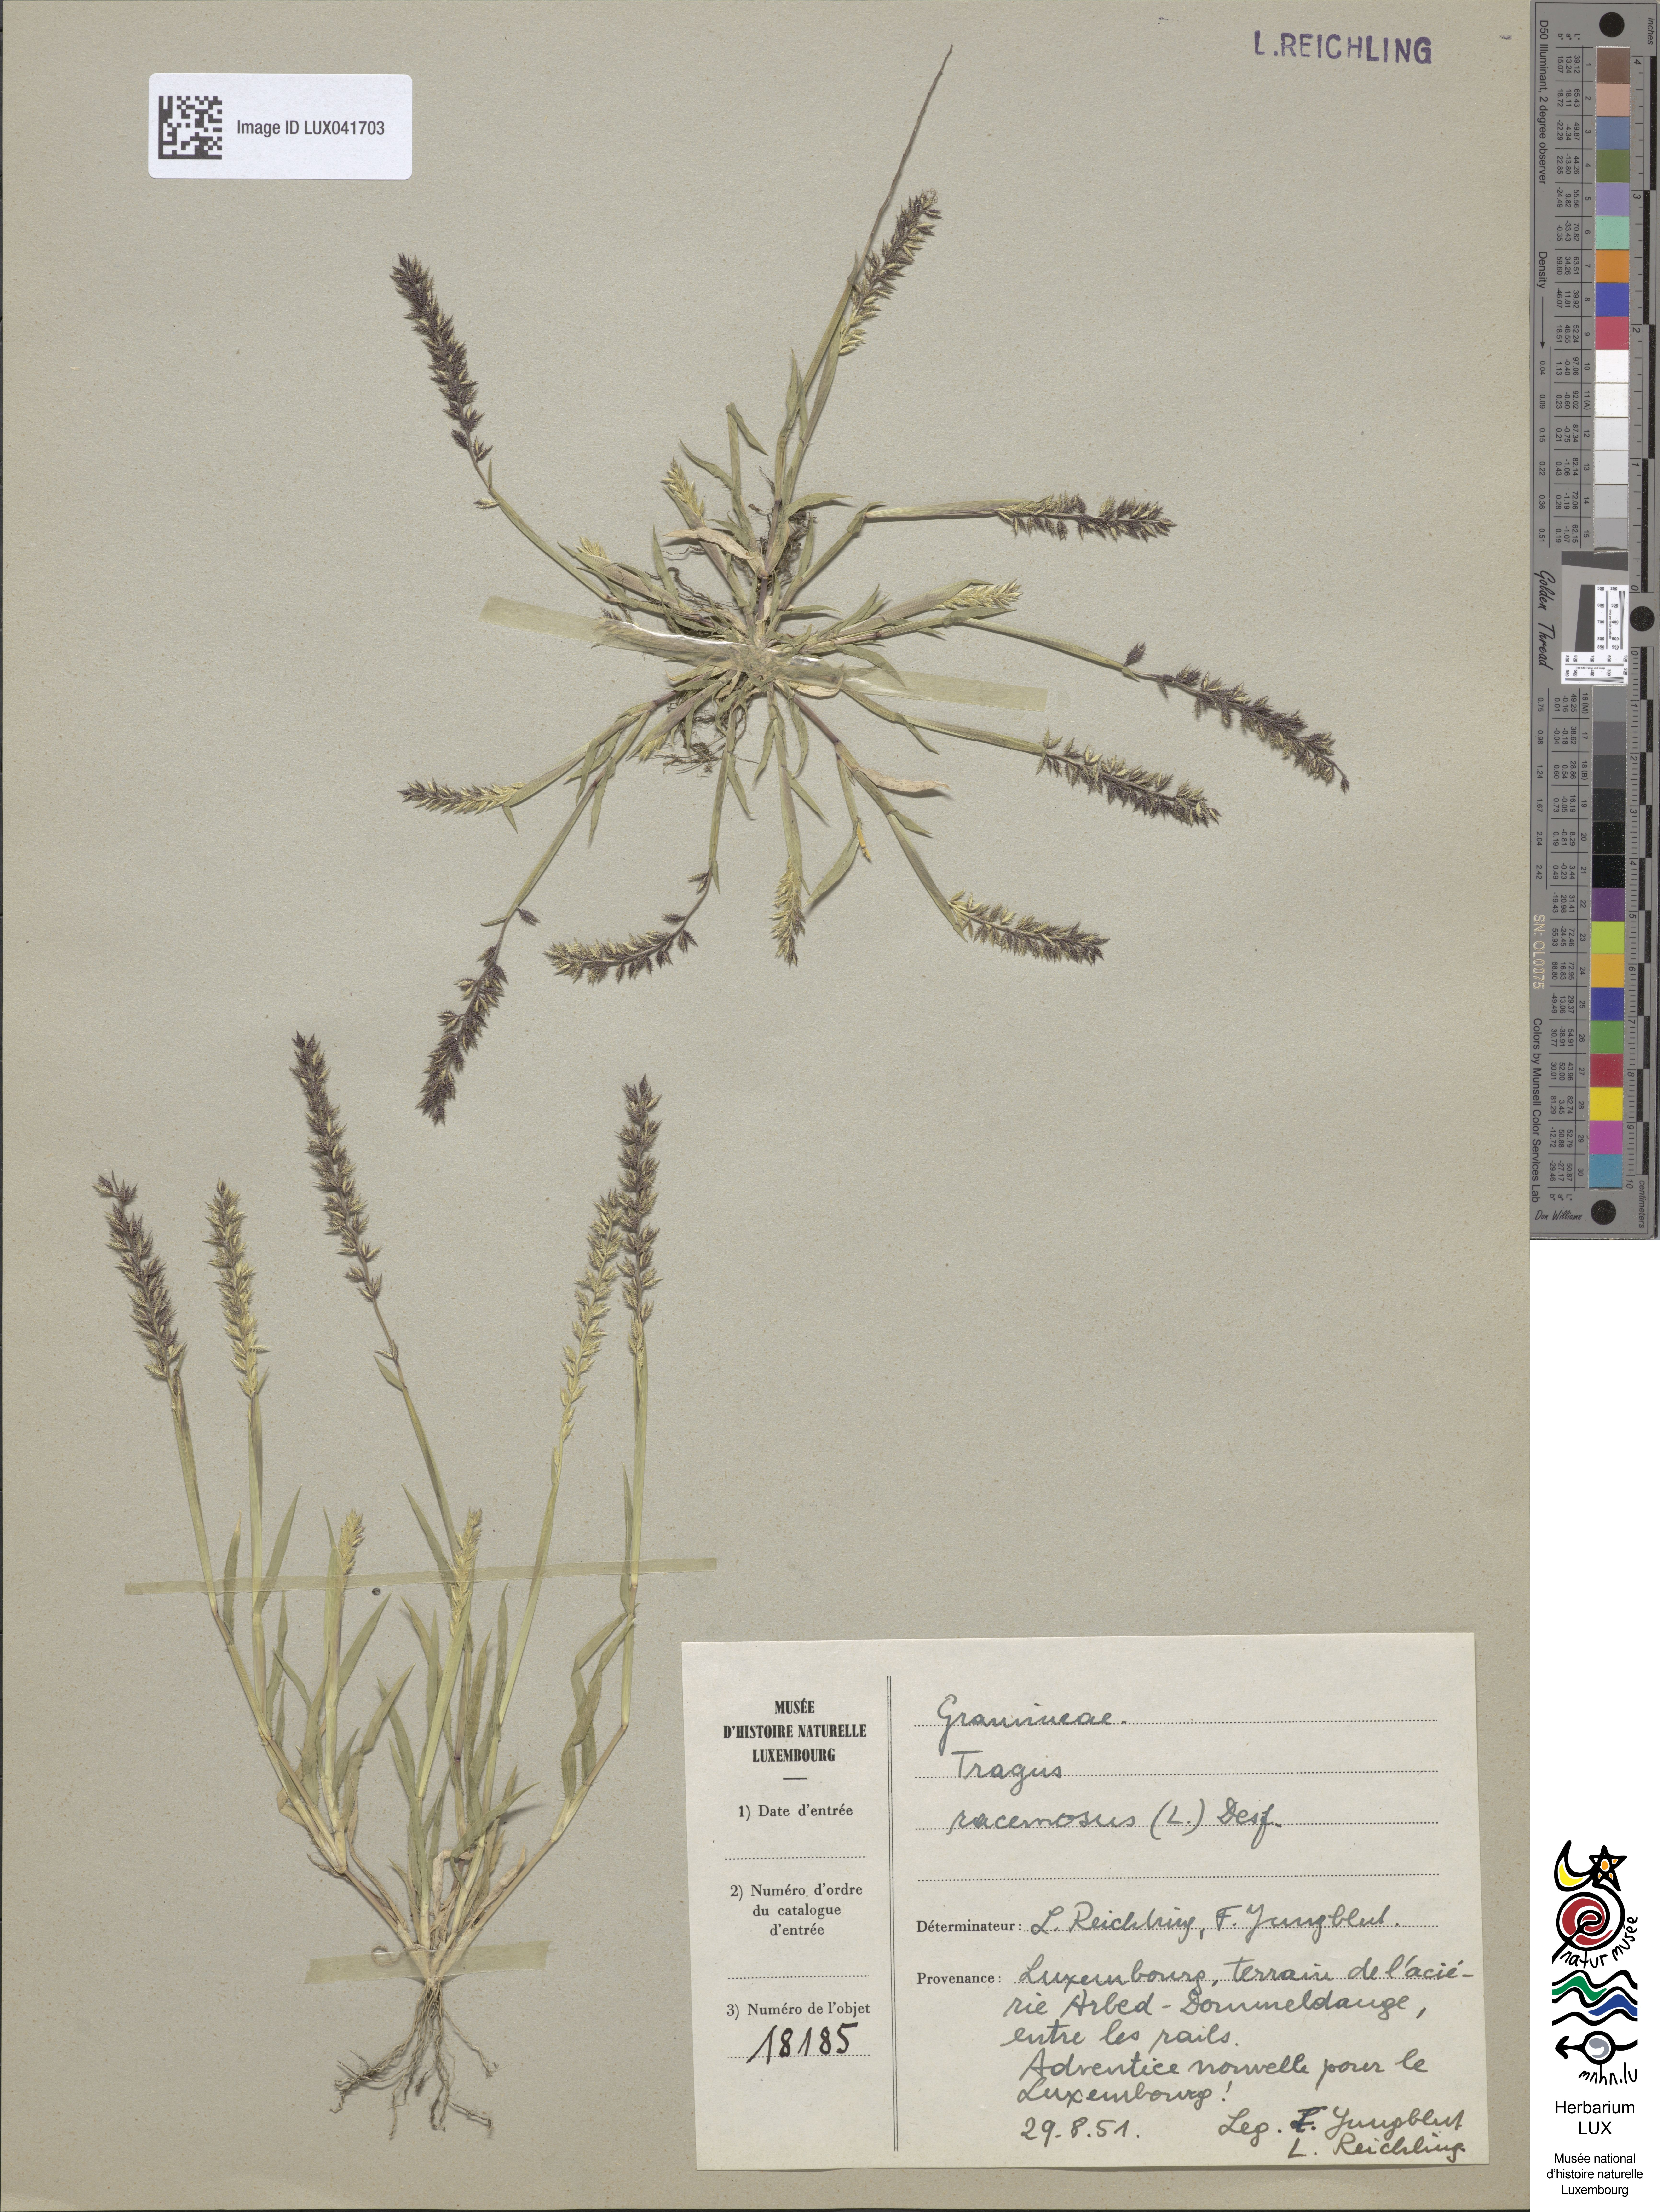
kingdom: Plantae
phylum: Tracheophyta
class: Liliopsida
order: Poales
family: Poaceae
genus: Tragus
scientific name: Tragus racemosus
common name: European bur-grass
